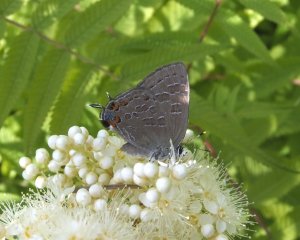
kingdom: Animalia
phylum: Arthropoda
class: Insecta
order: Lepidoptera
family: Lycaenidae
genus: Satyrium
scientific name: Satyrium liparops
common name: Striped Hairstreak
